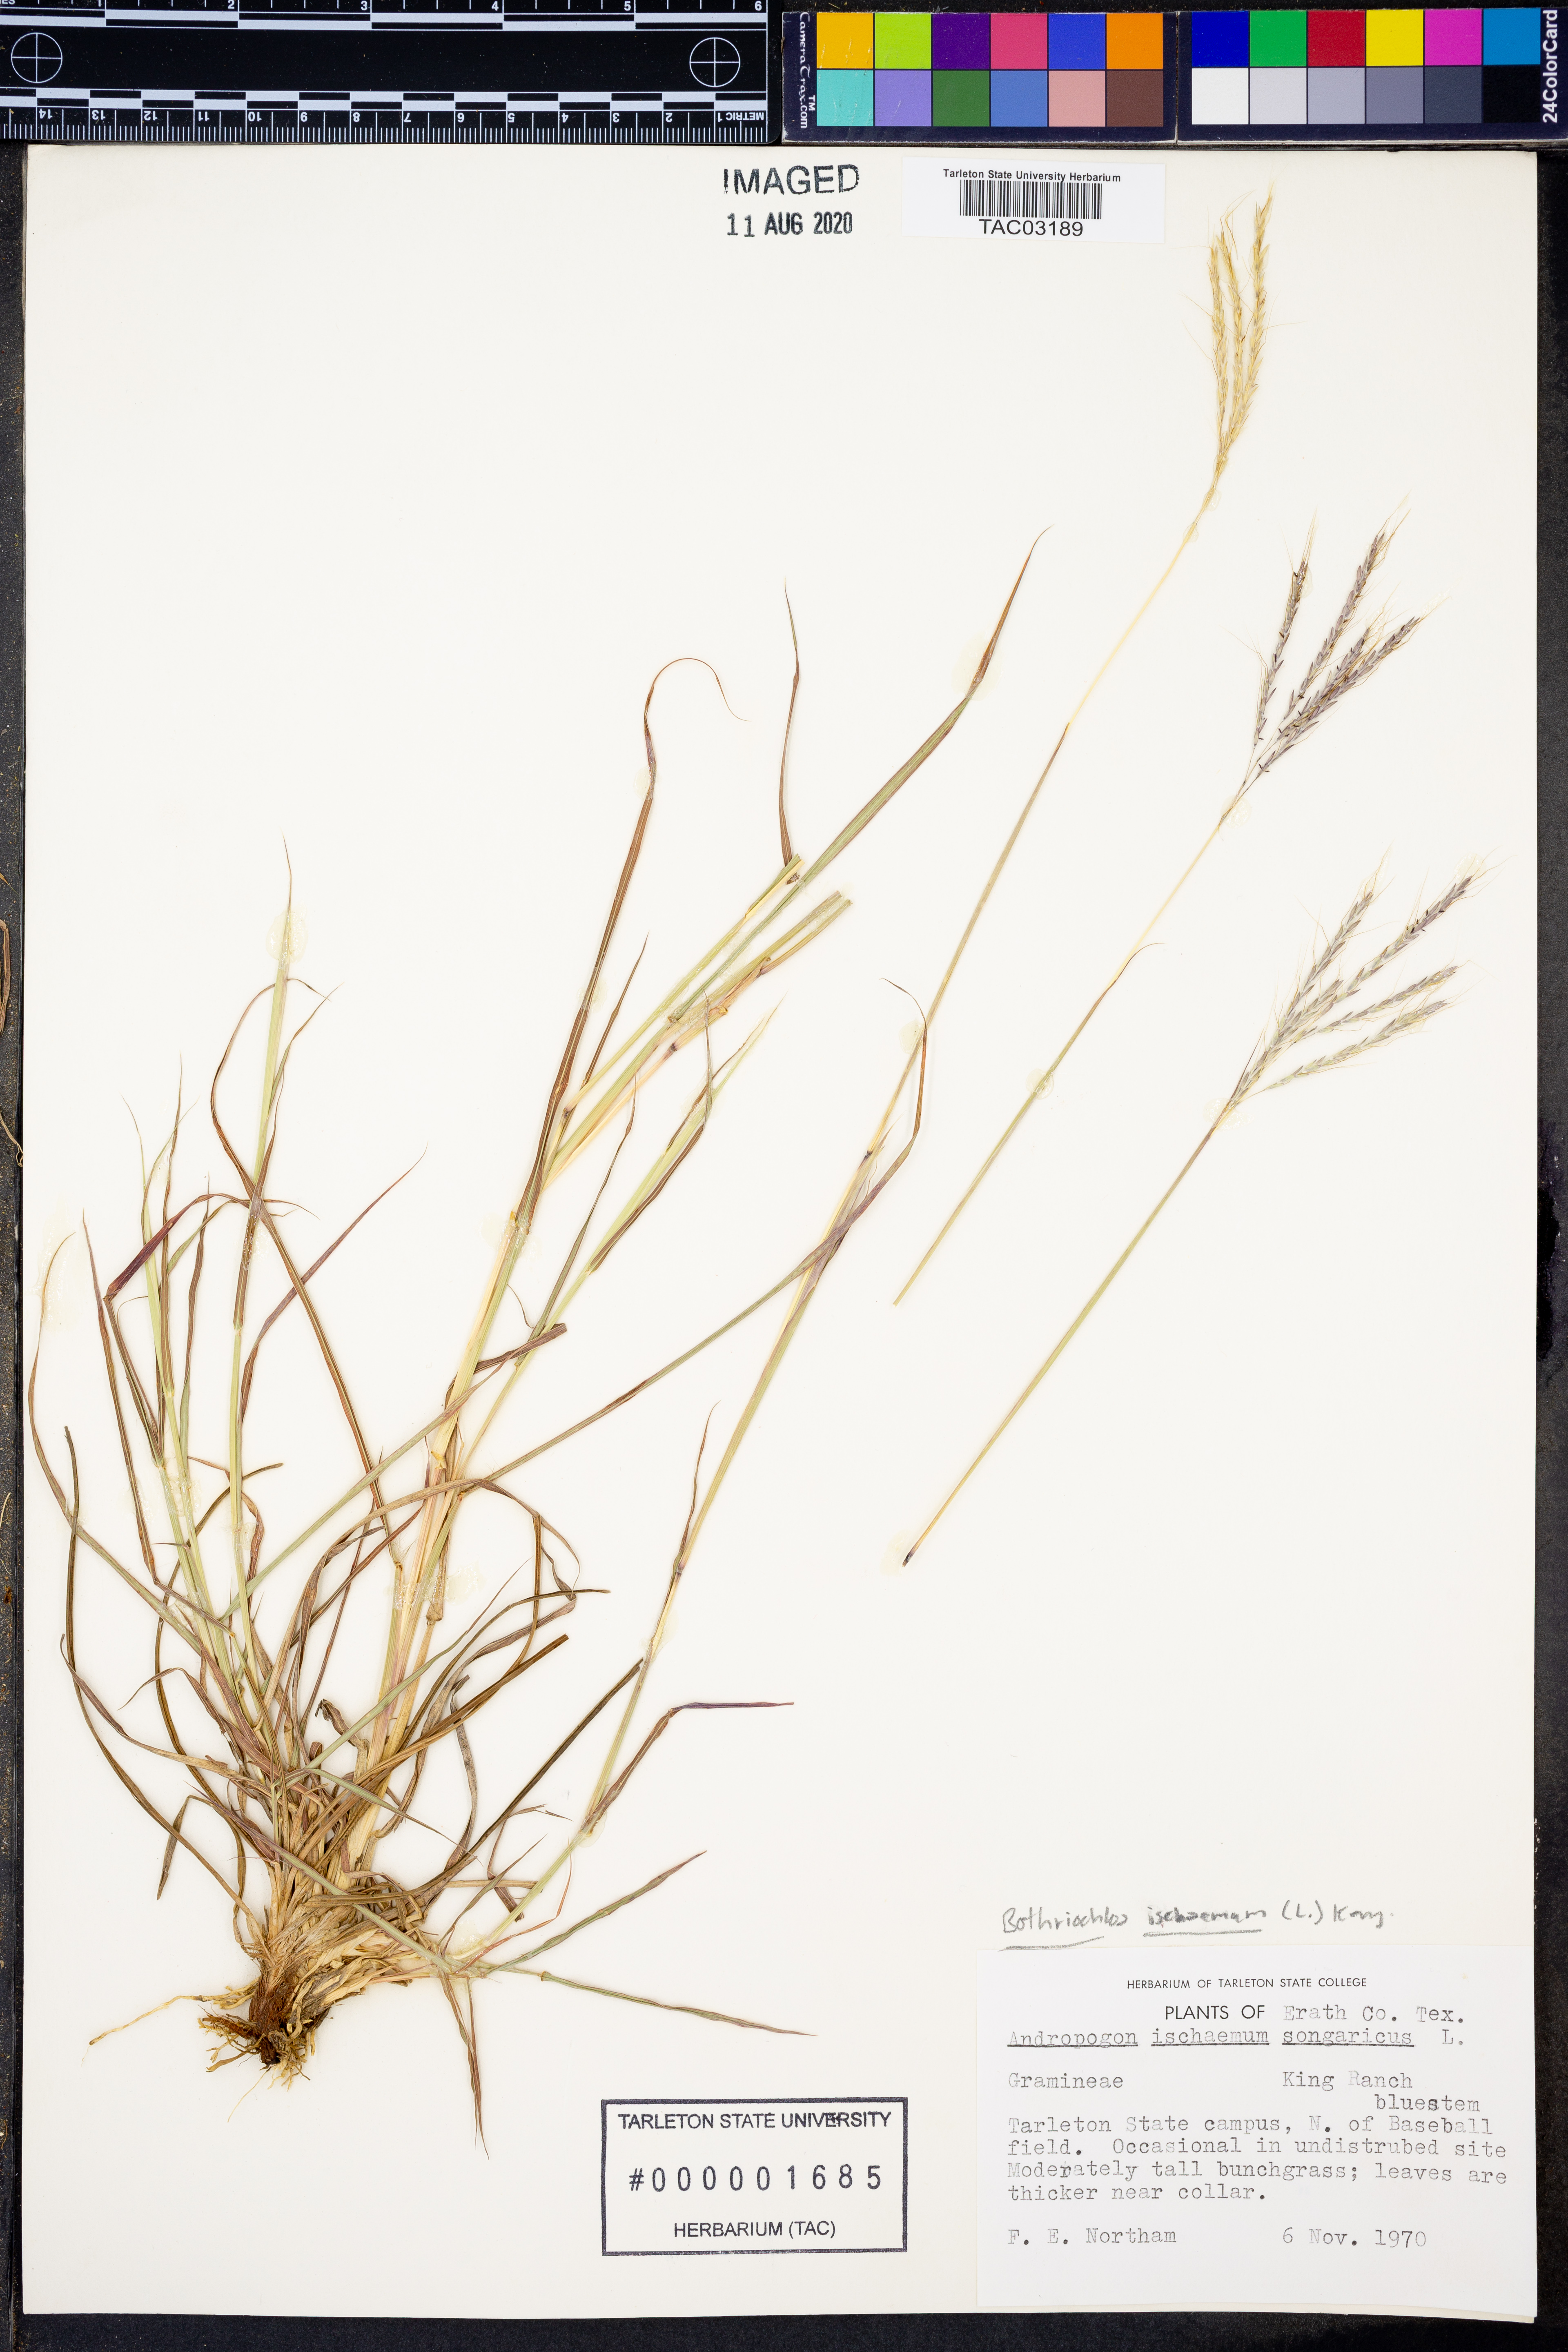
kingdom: Plantae
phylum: Tracheophyta
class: Liliopsida
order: Poales
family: Poaceae
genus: Bothriochloa
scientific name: Bothriochloa ischaemum
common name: Yellow bluestem
